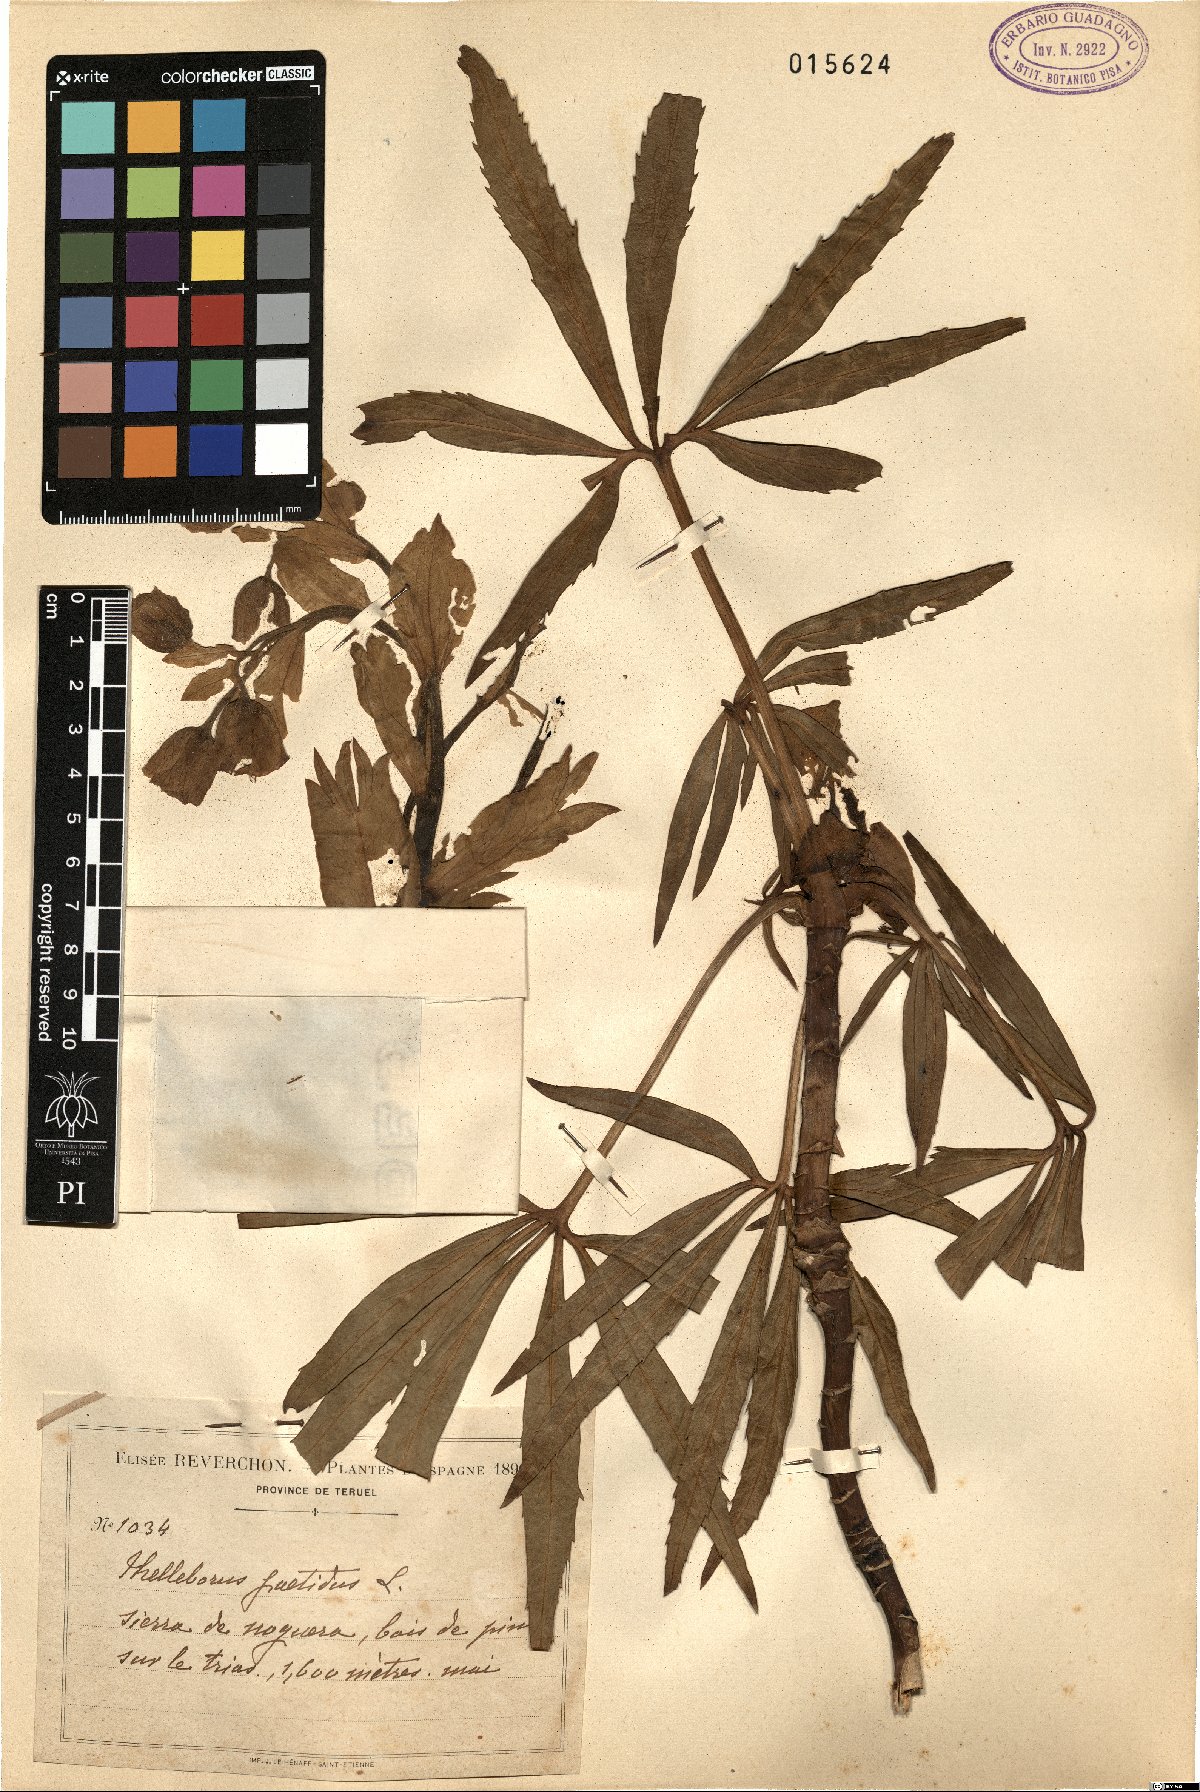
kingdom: Plantae
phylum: Tracheophyta
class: Magnoliopsida
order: Ranunculales
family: Ranunculaceae
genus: Helleborus
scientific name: Helleborus foetidus
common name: Stinking hellebore
